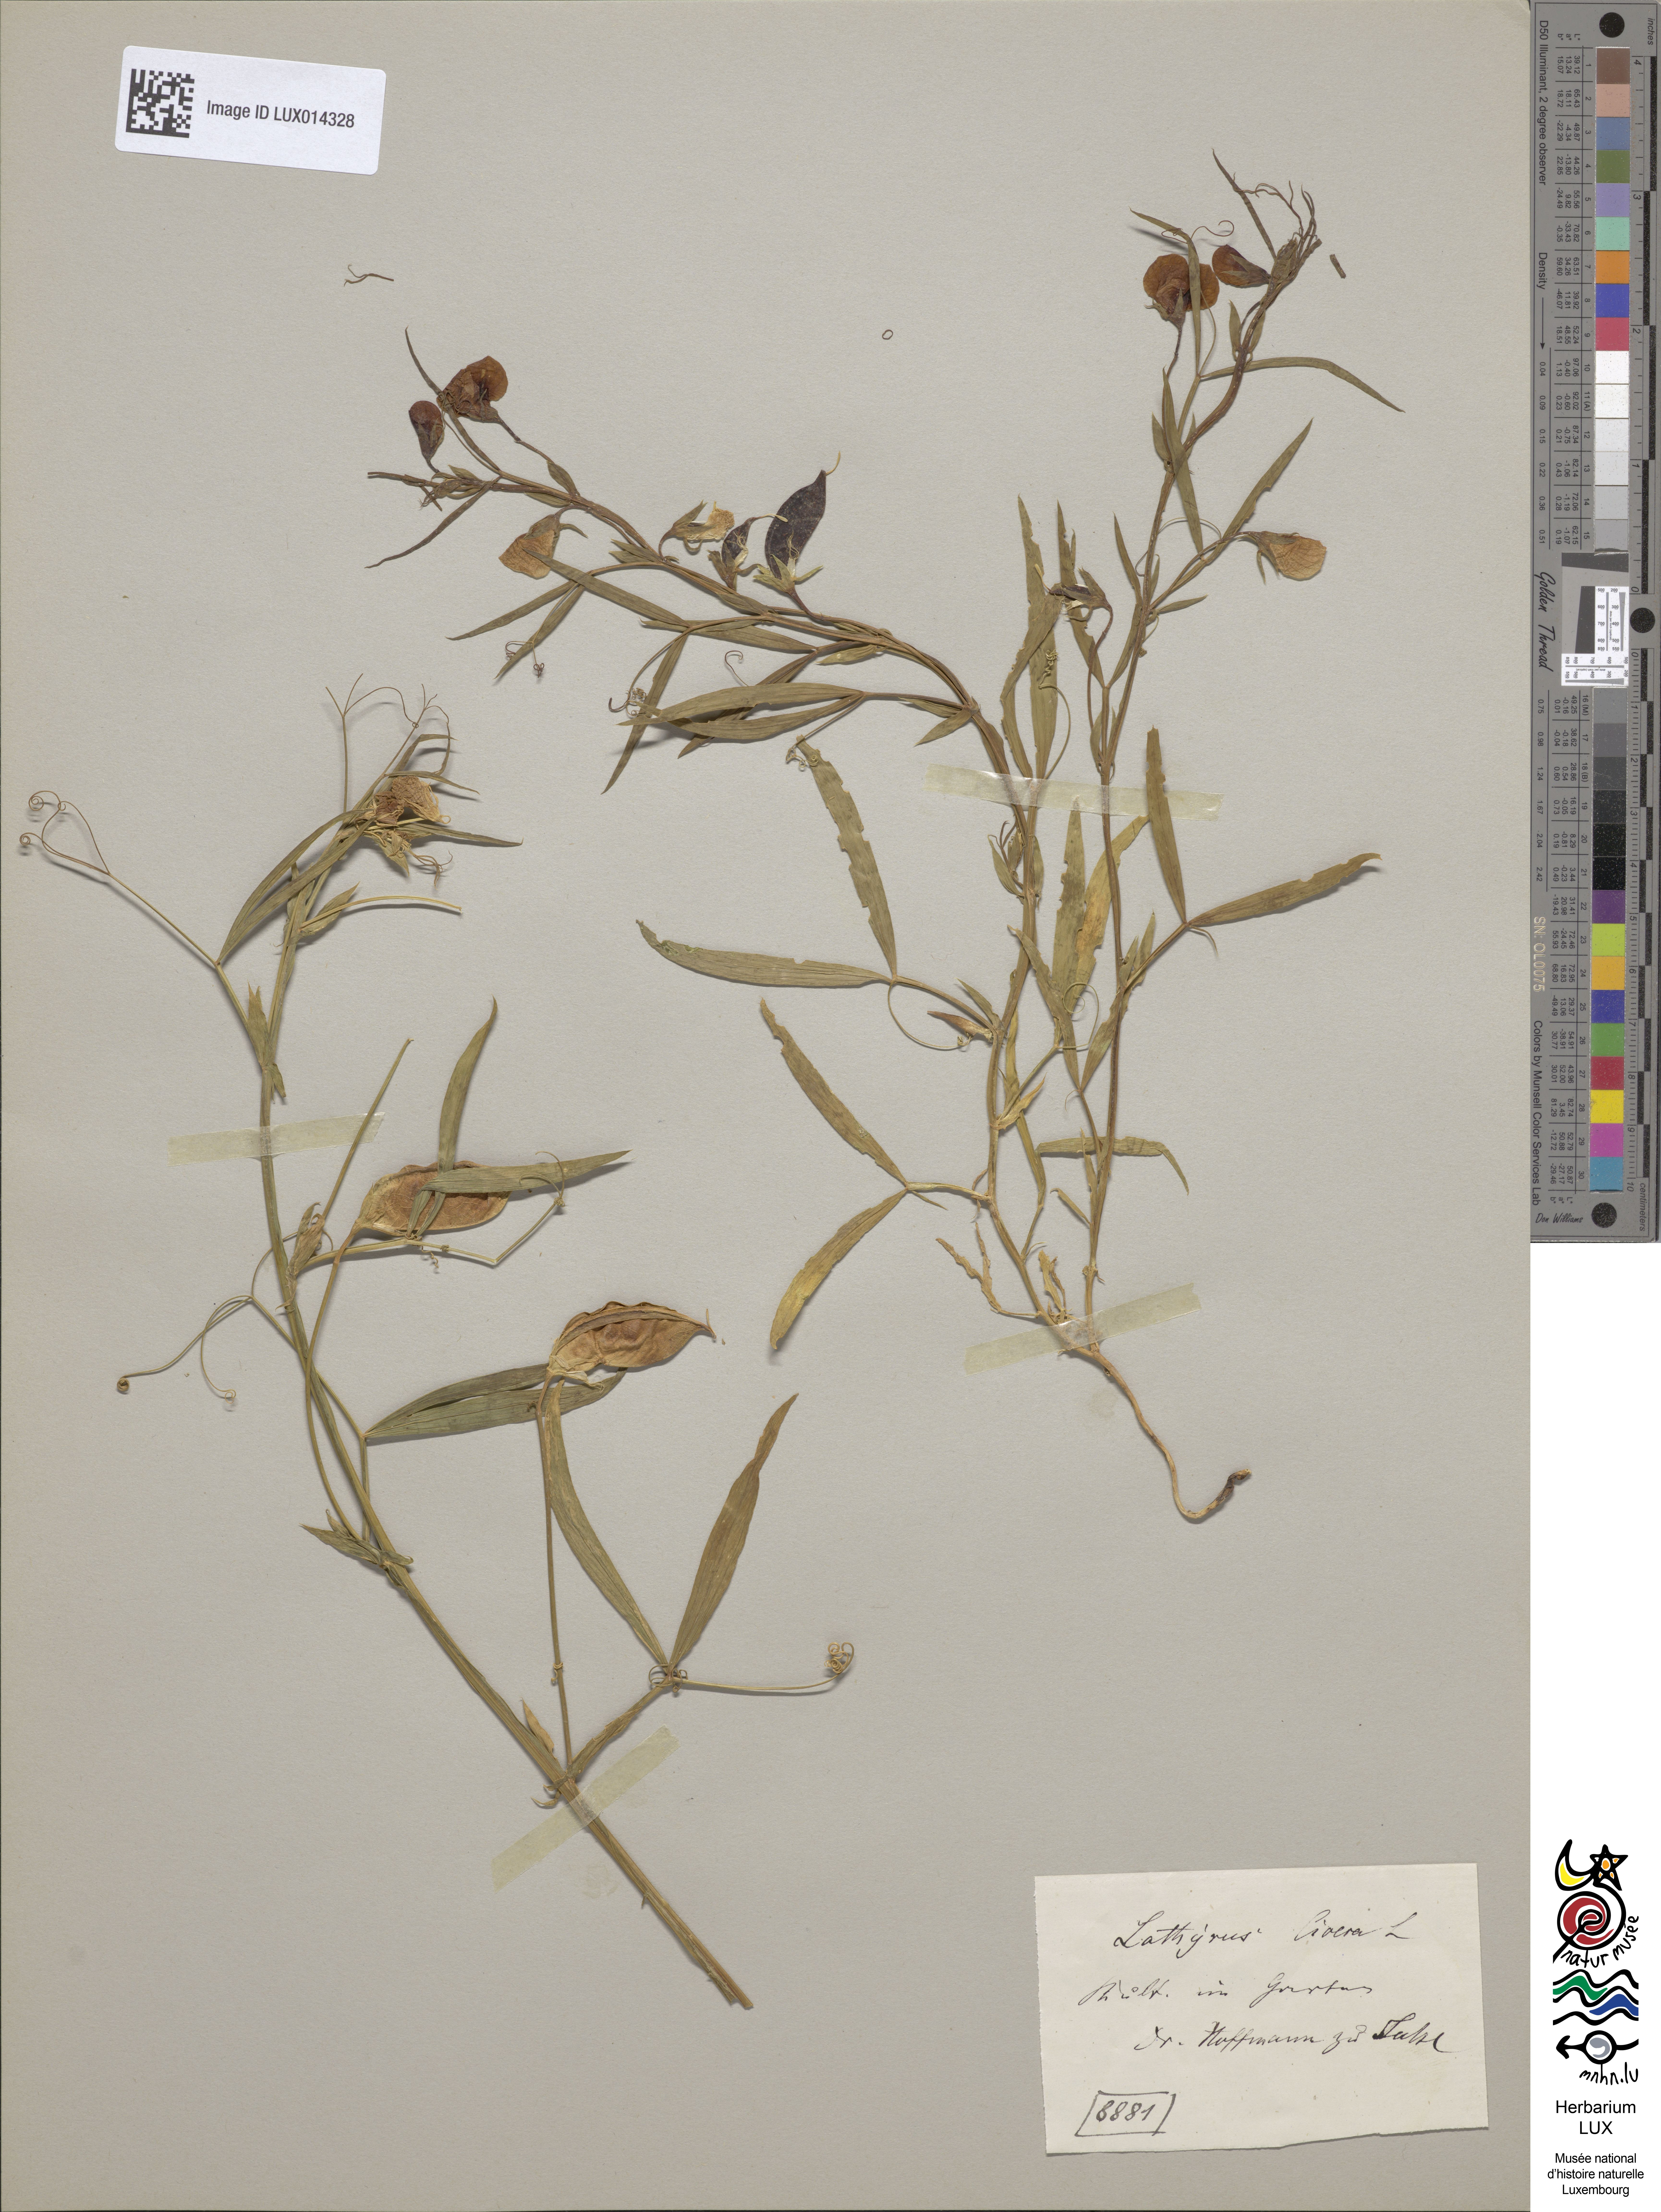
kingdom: Plantae
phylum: Tracheophyta
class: Magnoliopsida
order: Fabales
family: Fabaceae
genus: Lathyrus
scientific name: Lathyrus cicera
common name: Red vetchling
